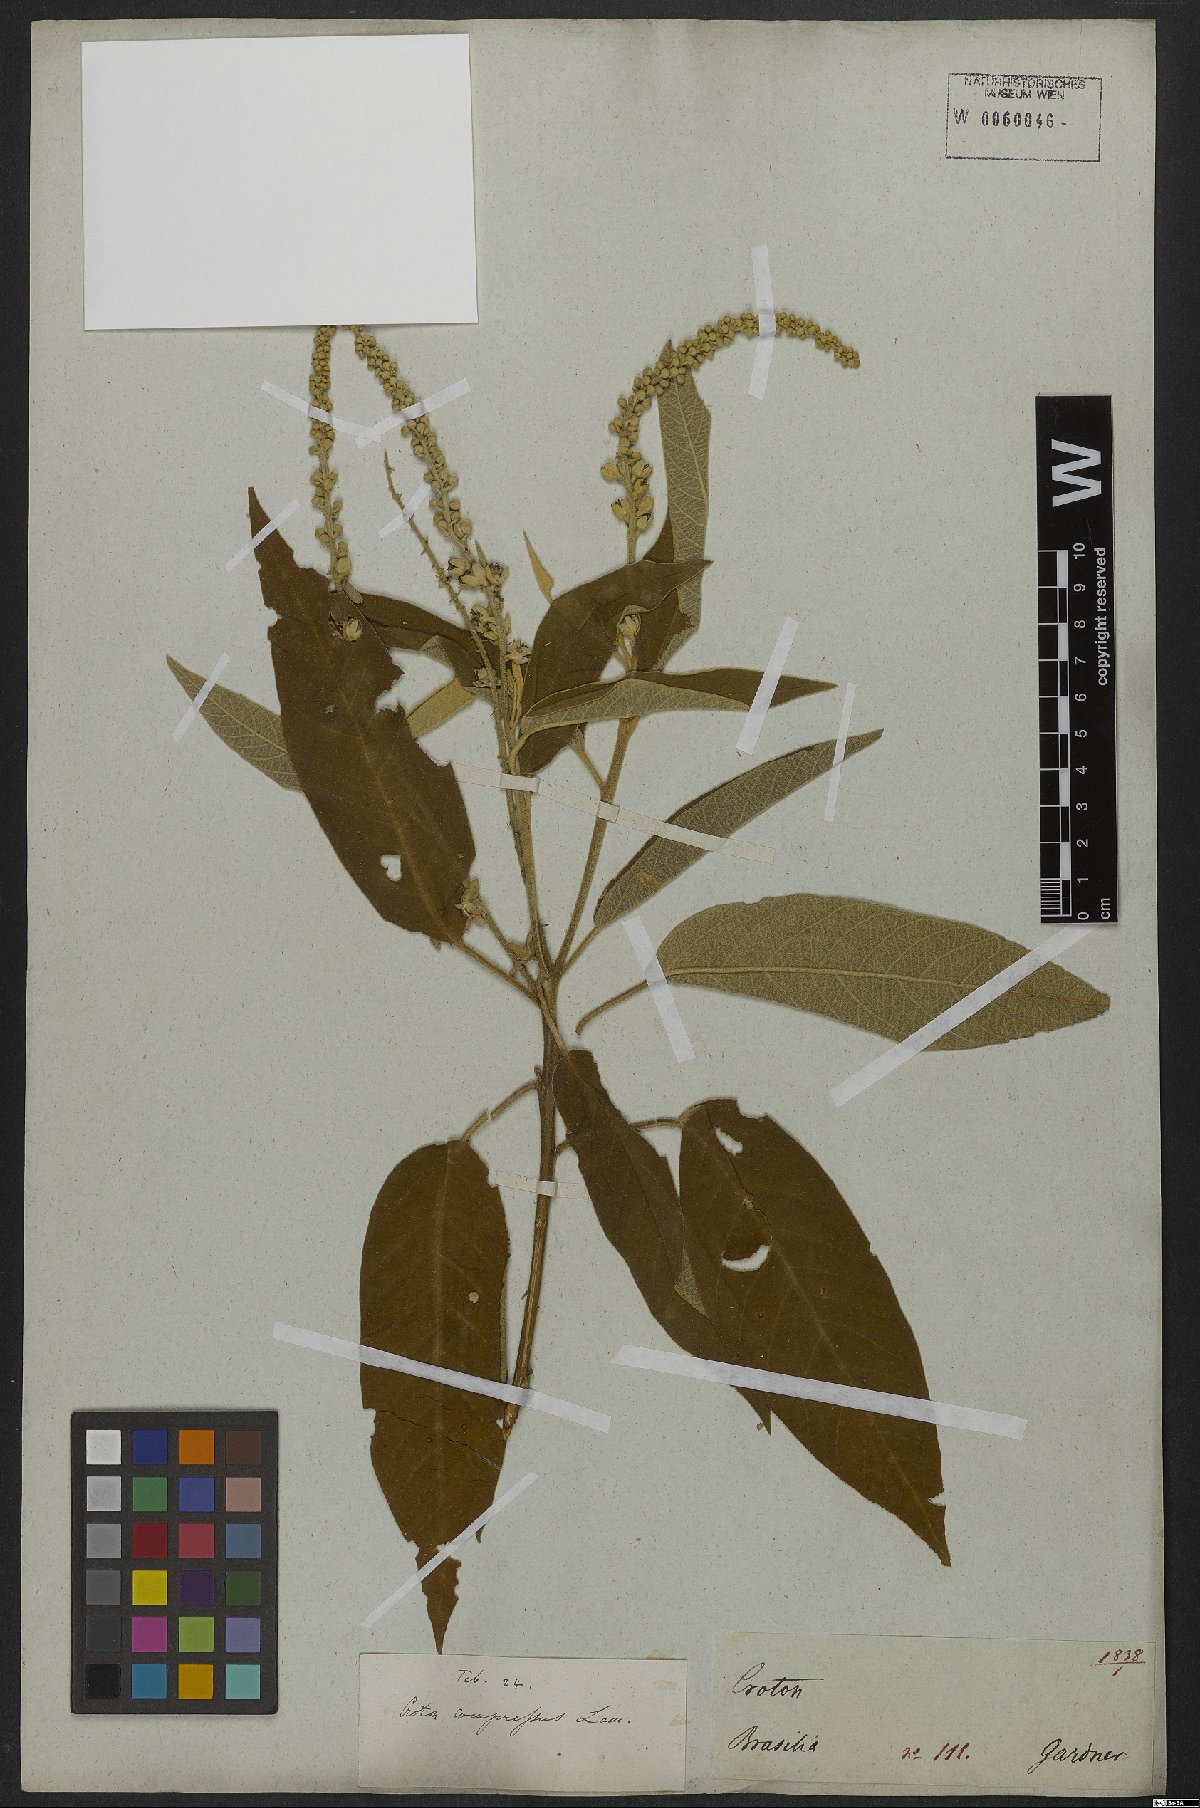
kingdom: Plantae
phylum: Tracheophyta
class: Magnoliopsida
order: Malpighiales
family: Euphorbiaceae
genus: Croton
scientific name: Croton compressus
